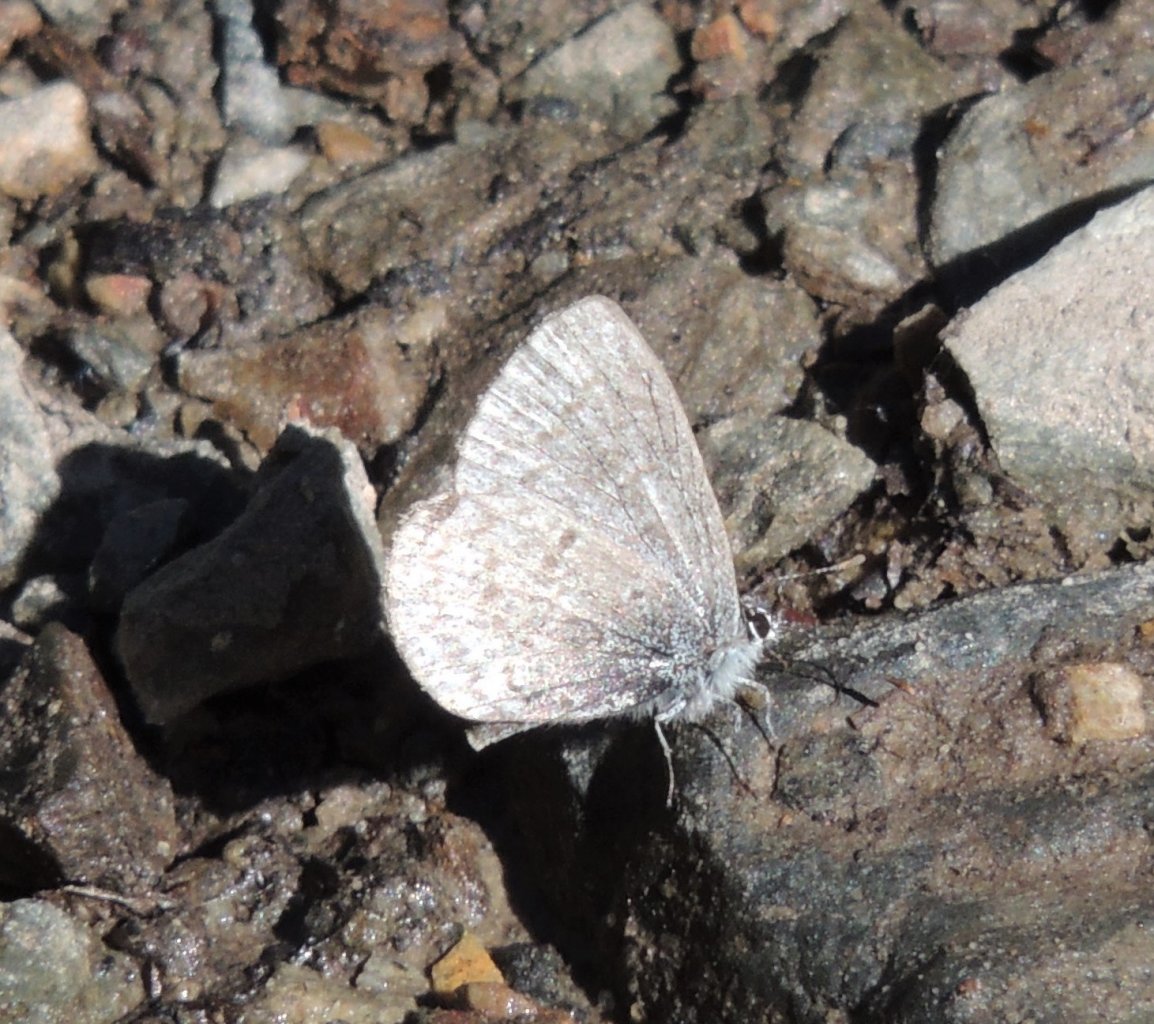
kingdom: Animalia
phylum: Arthropoda
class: Insecta
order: Lepidoptera
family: Lycaenidae
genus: Celastrina
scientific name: Celastrina ladon
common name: Spring Azure
